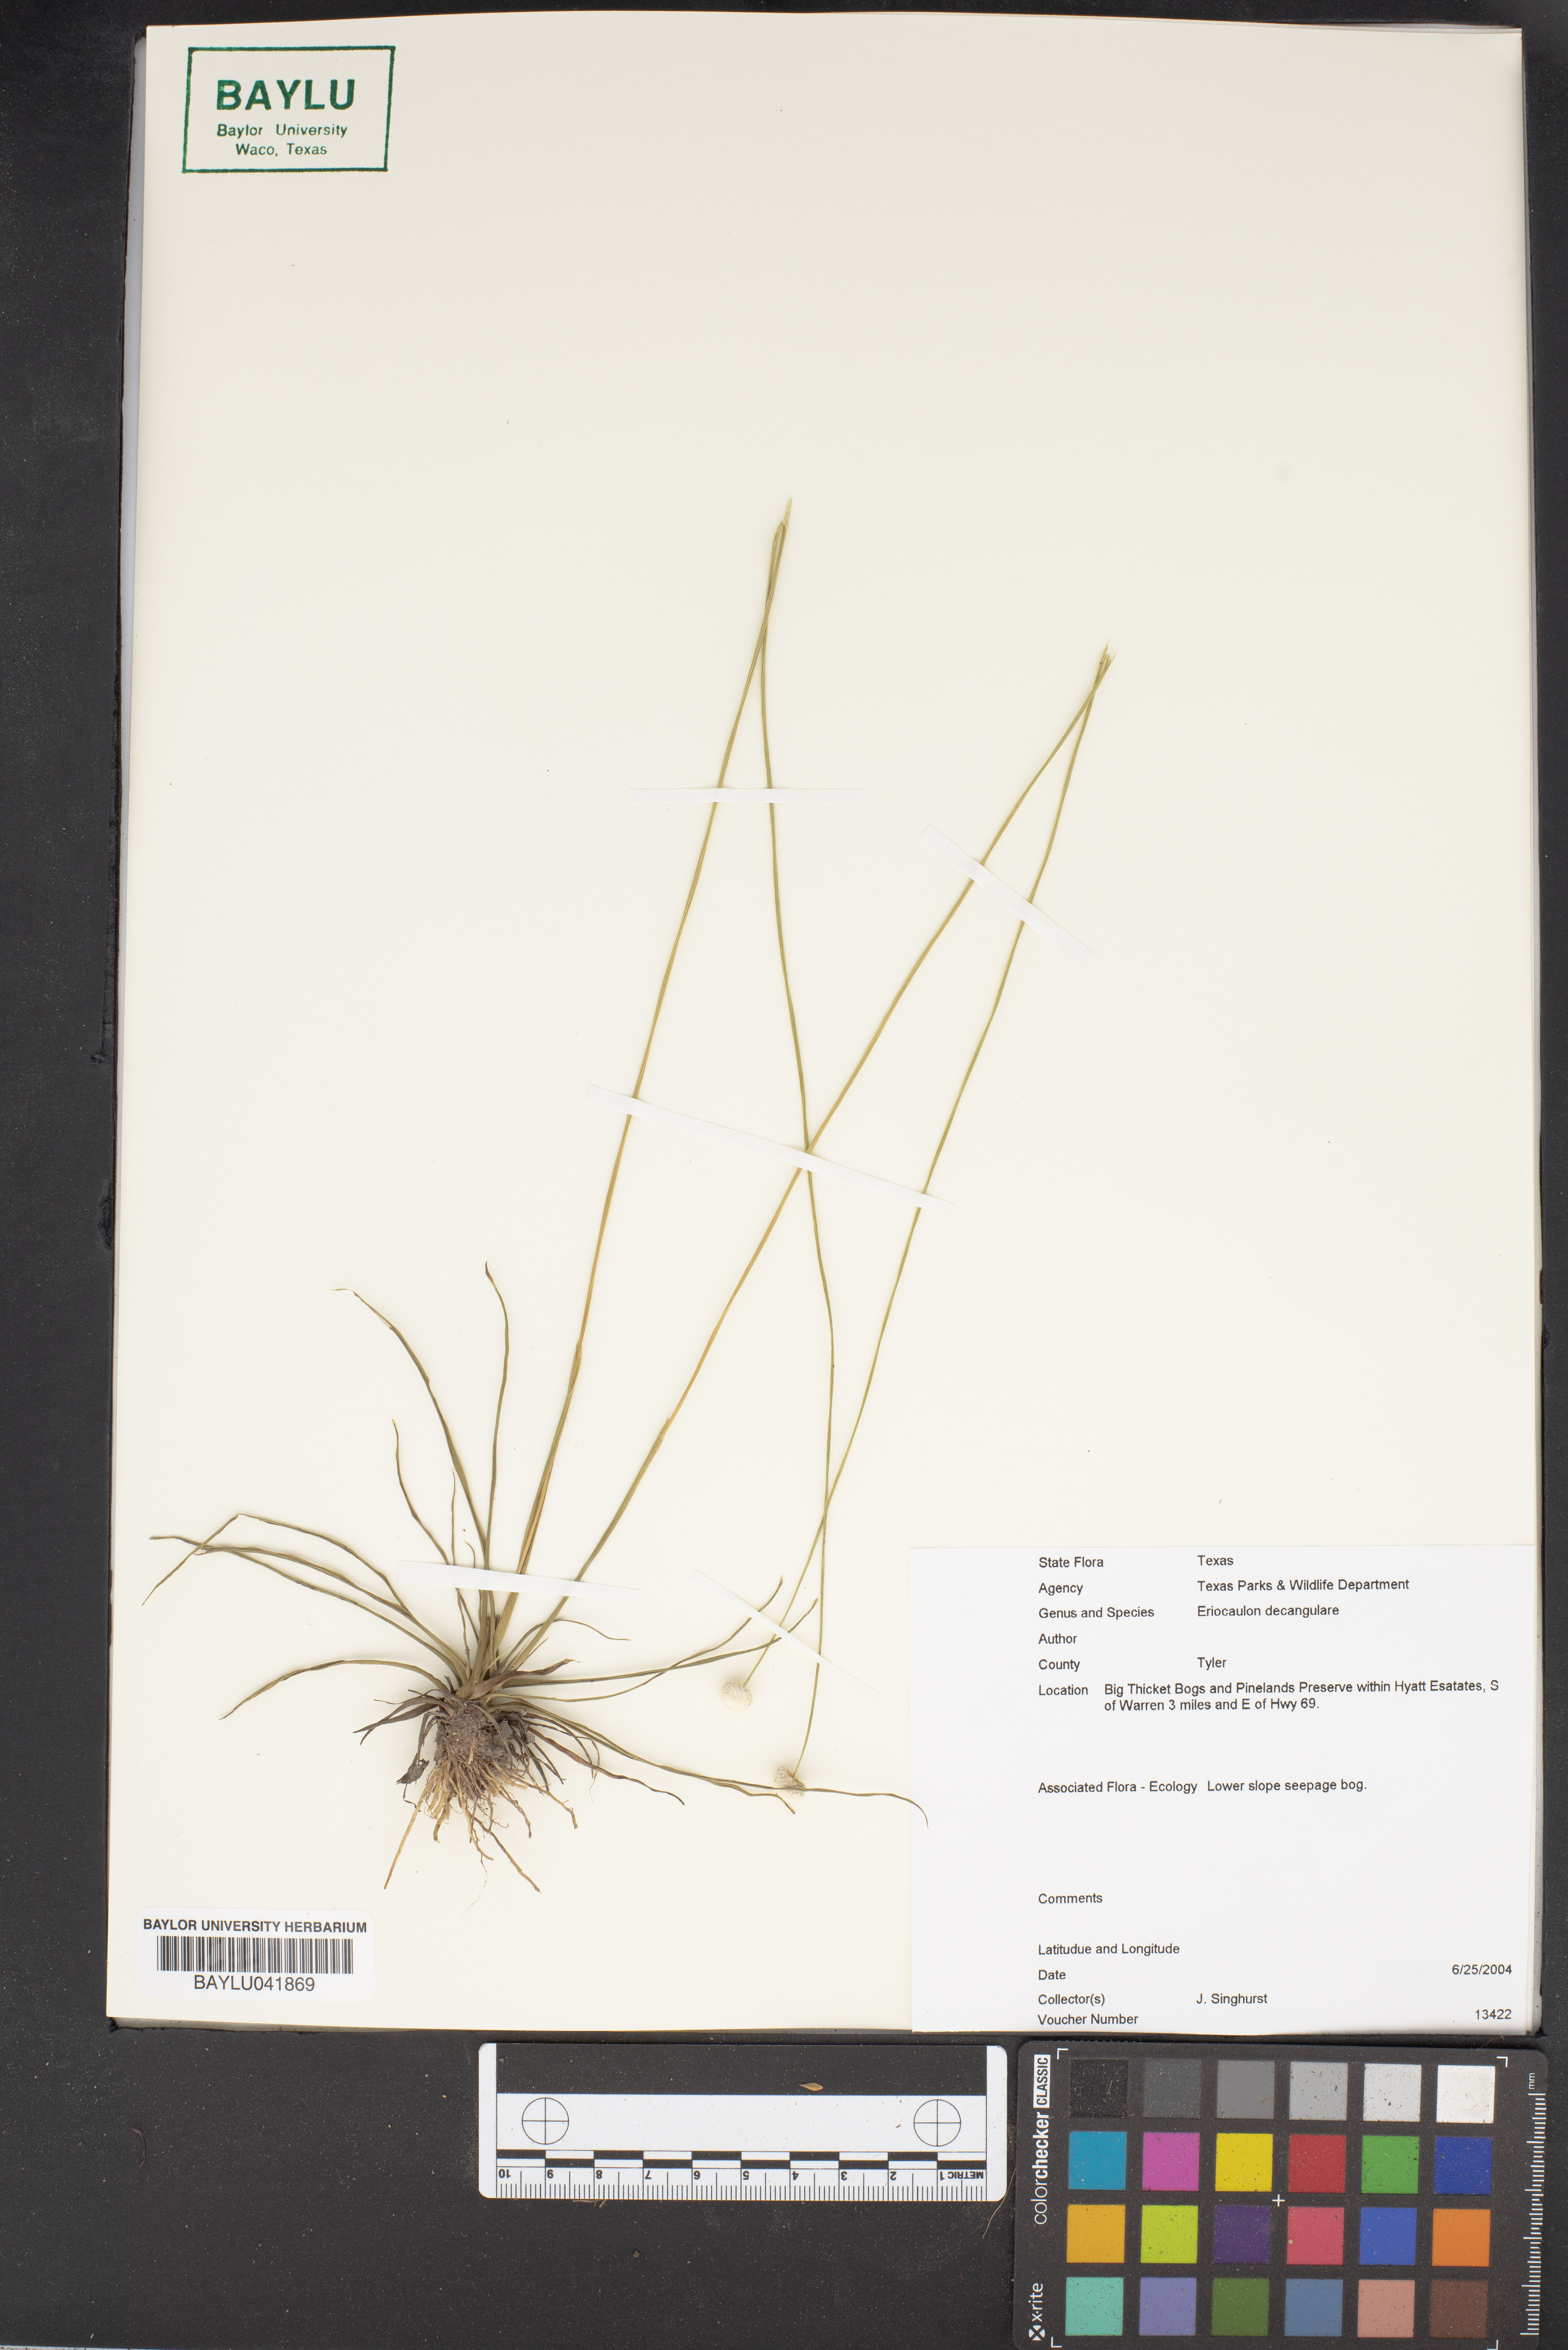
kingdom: Plantae
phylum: Tracheophyta
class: Liliopsida
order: Poales
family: Eriocaulaceae
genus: Eriocaulon
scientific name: Eriocaulon decangulare
